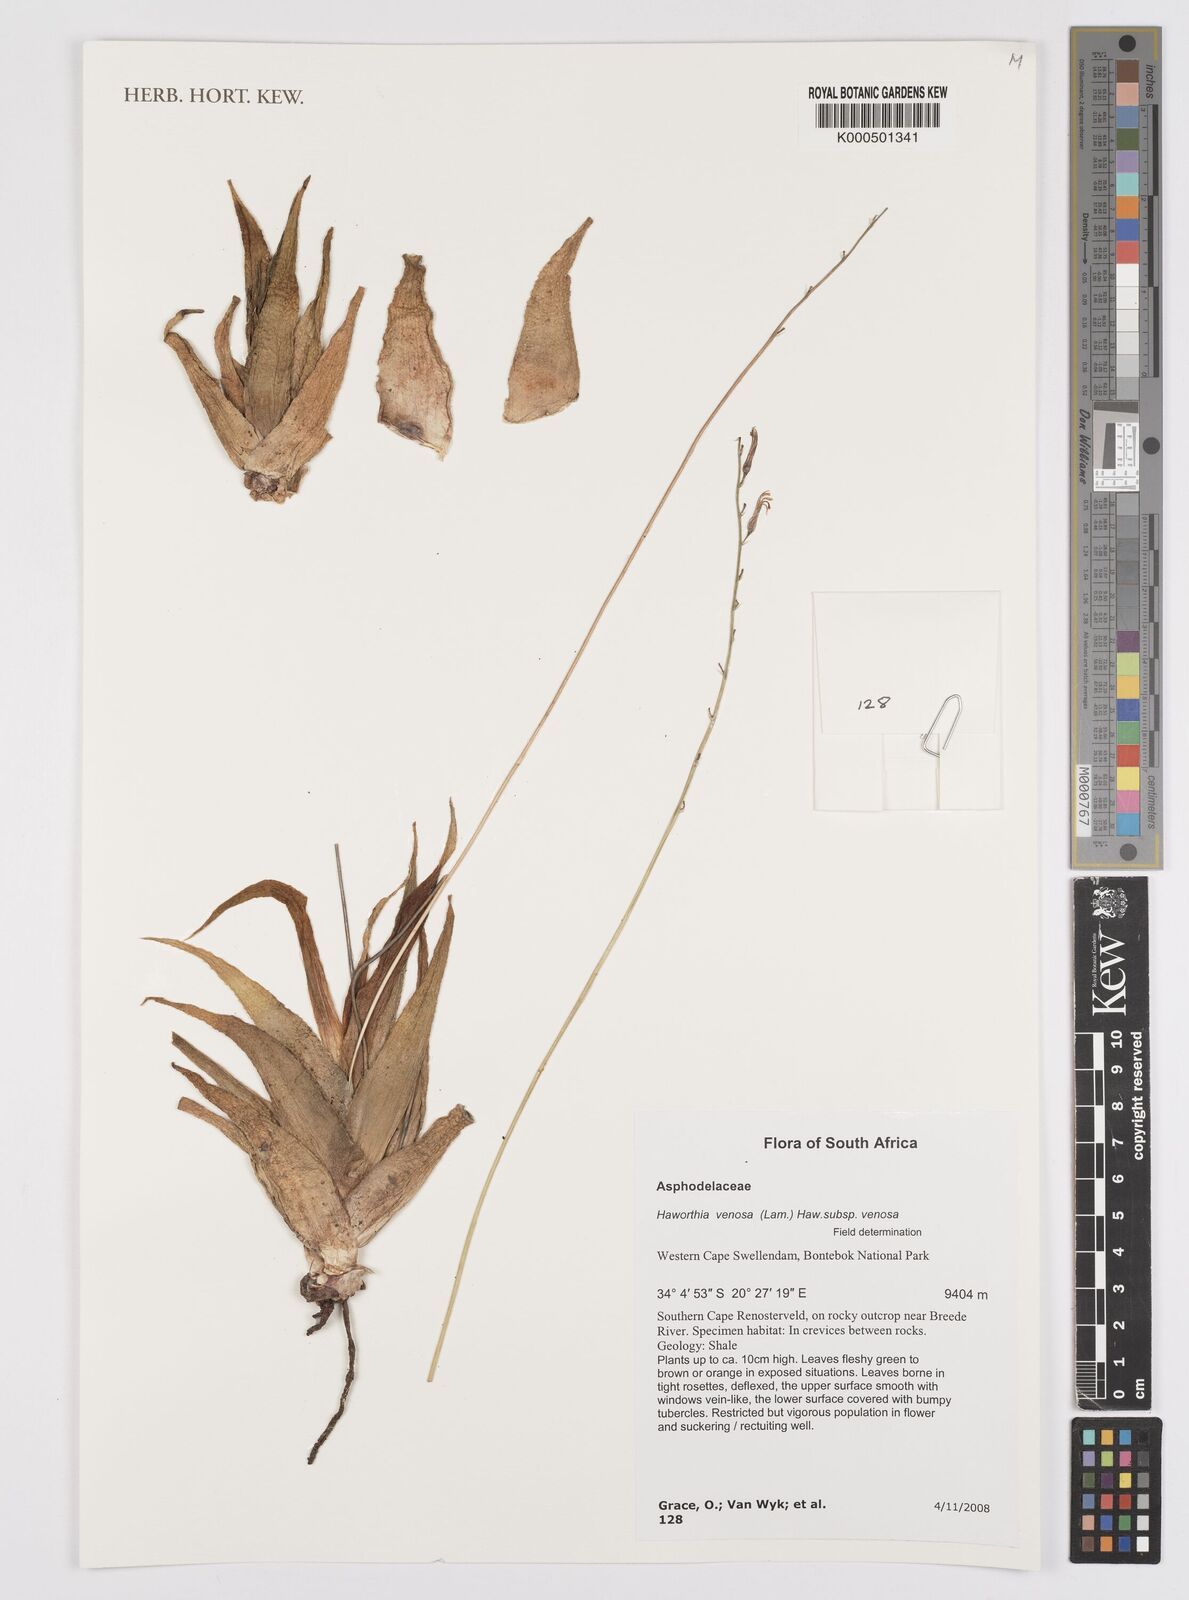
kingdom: Plantae
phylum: Tracheophyta
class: Liliopsida
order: Asparagales
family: Asphodelaceae
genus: Haworthiopsis
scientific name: Haworthiopsis venosa
